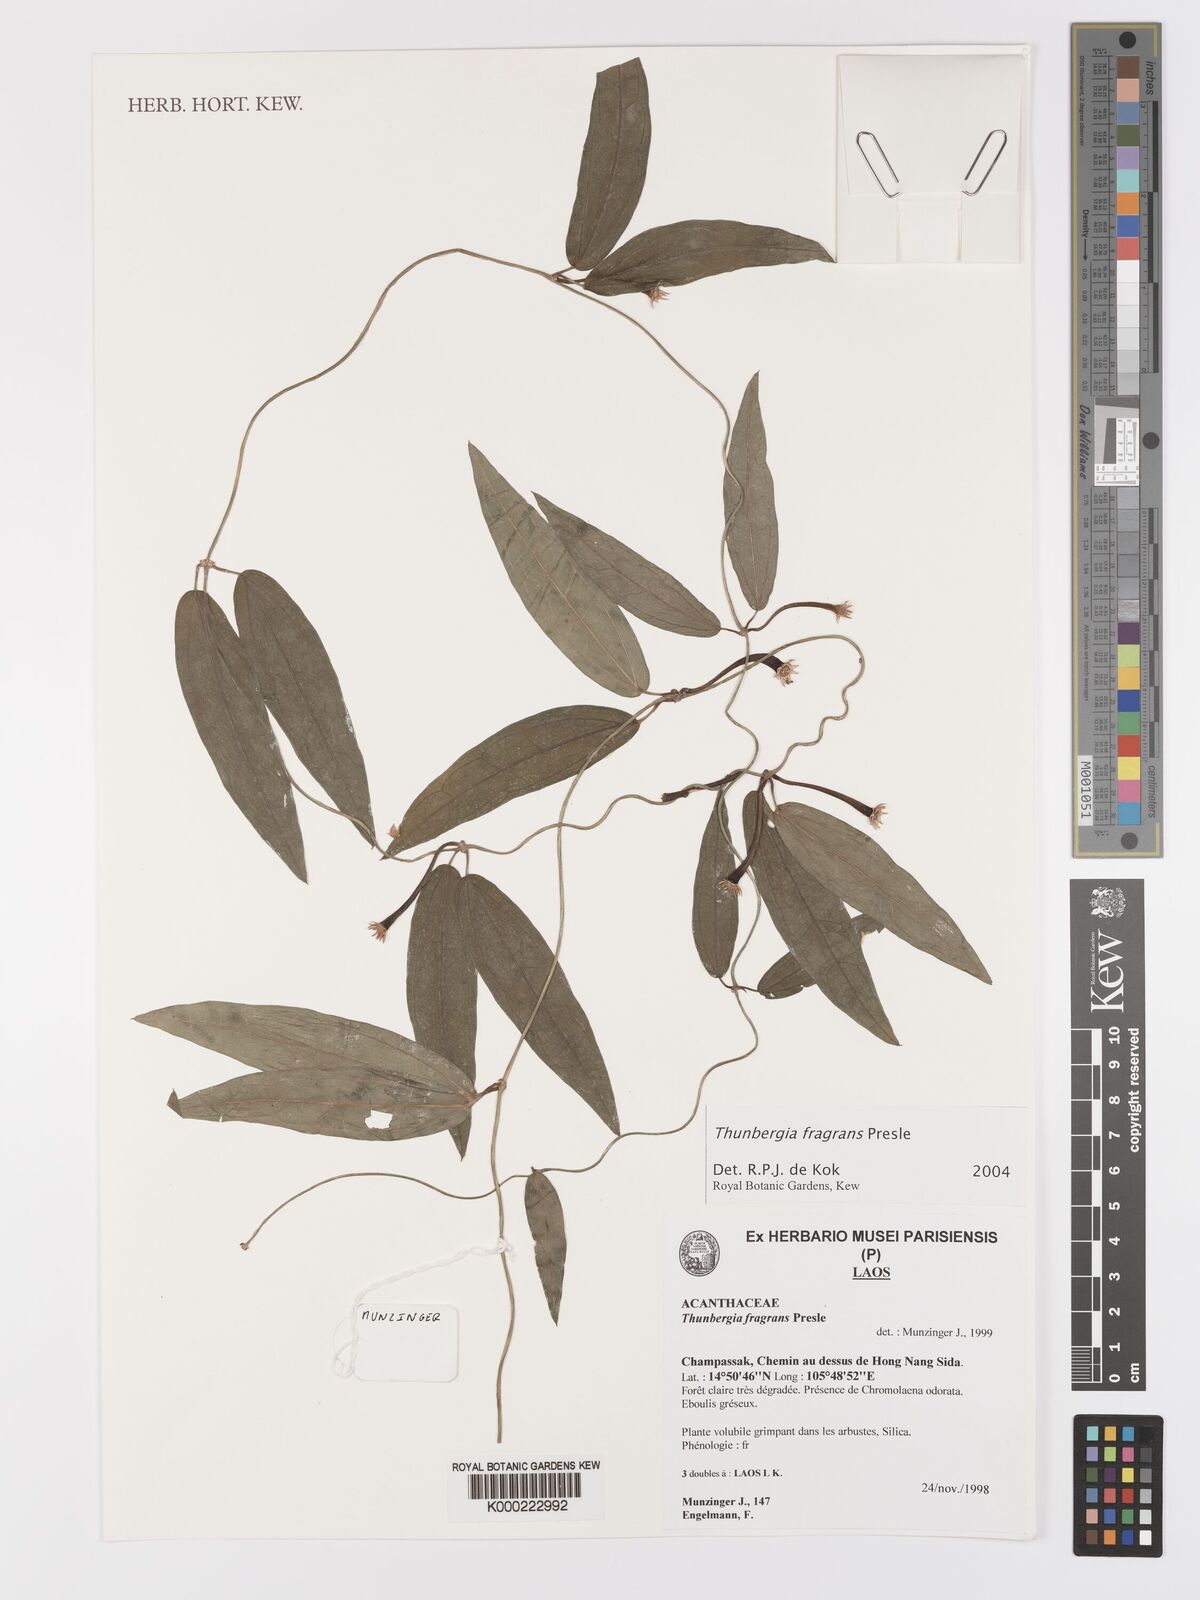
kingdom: Plantae
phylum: Tracheophyta
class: Magnoliopsida
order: Lamiales
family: Acanthaceae
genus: Thunbergia
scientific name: Thunbergia
